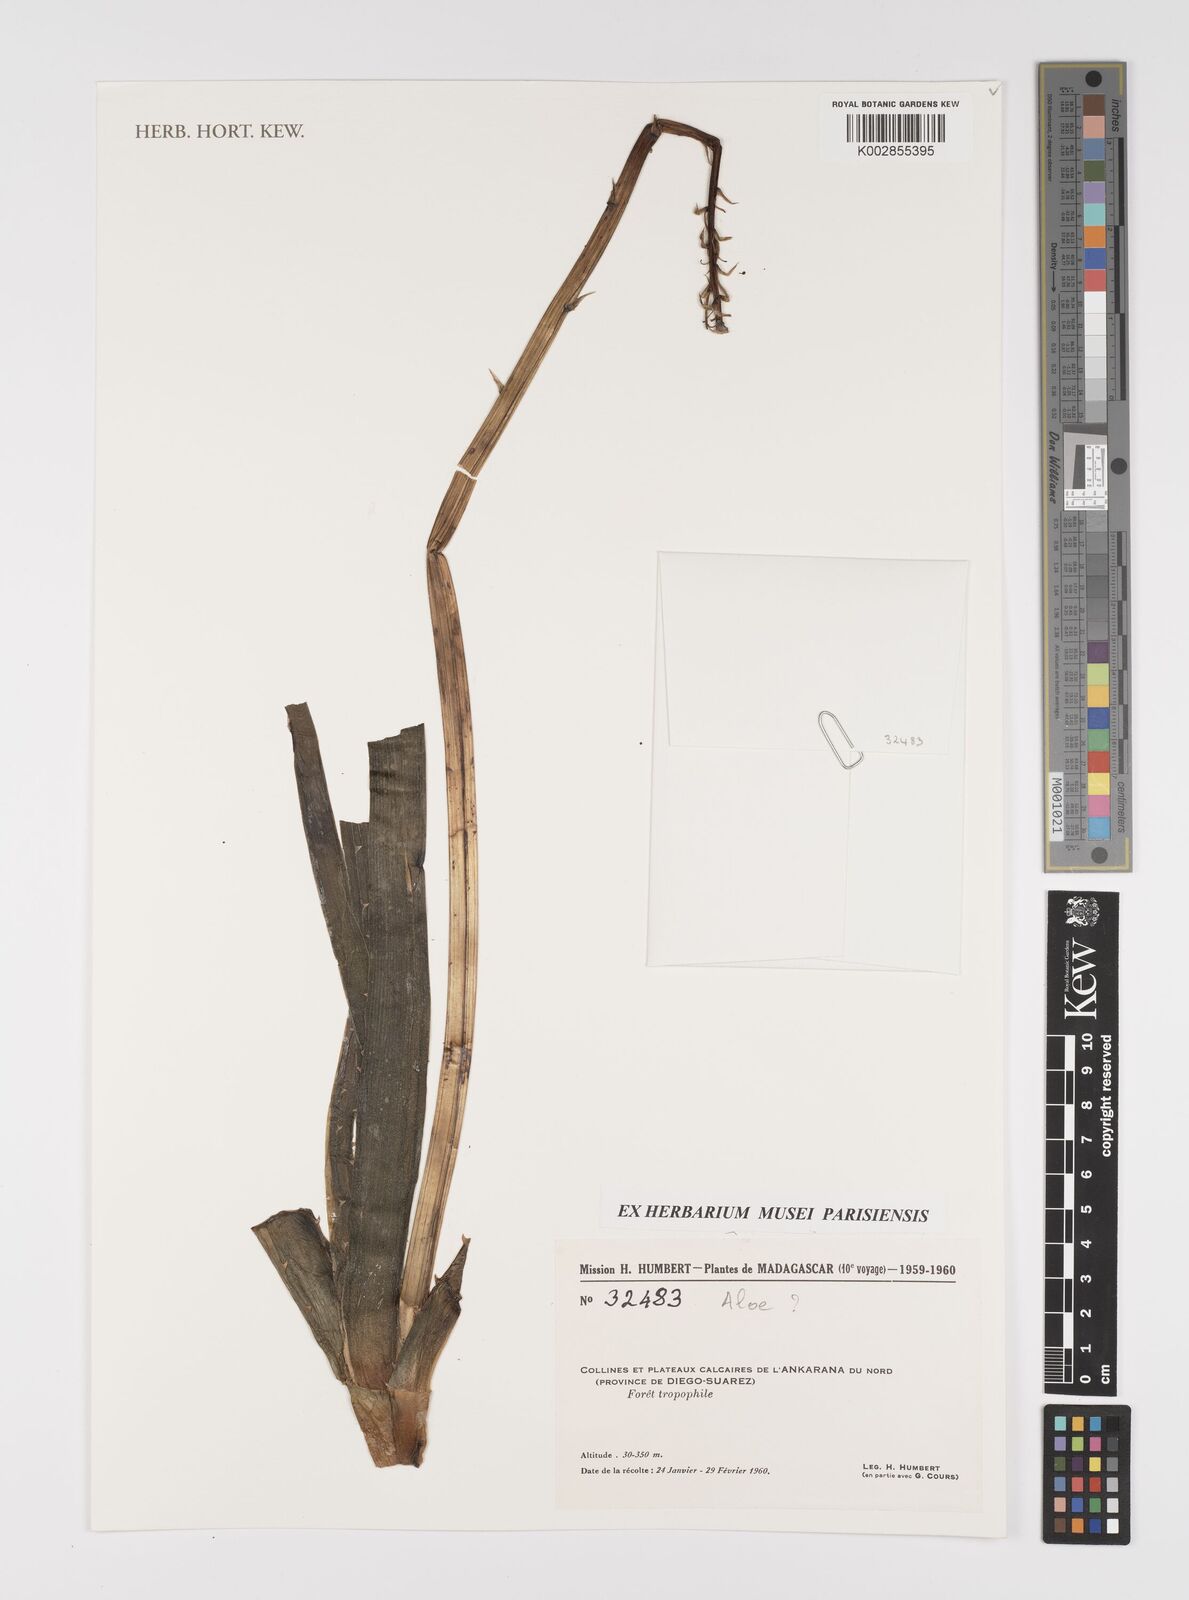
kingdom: Plantae
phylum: Tracheophyta
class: Liliopsida
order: Asparagales
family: Asphodelaceae
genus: Aloe
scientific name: Aloe
